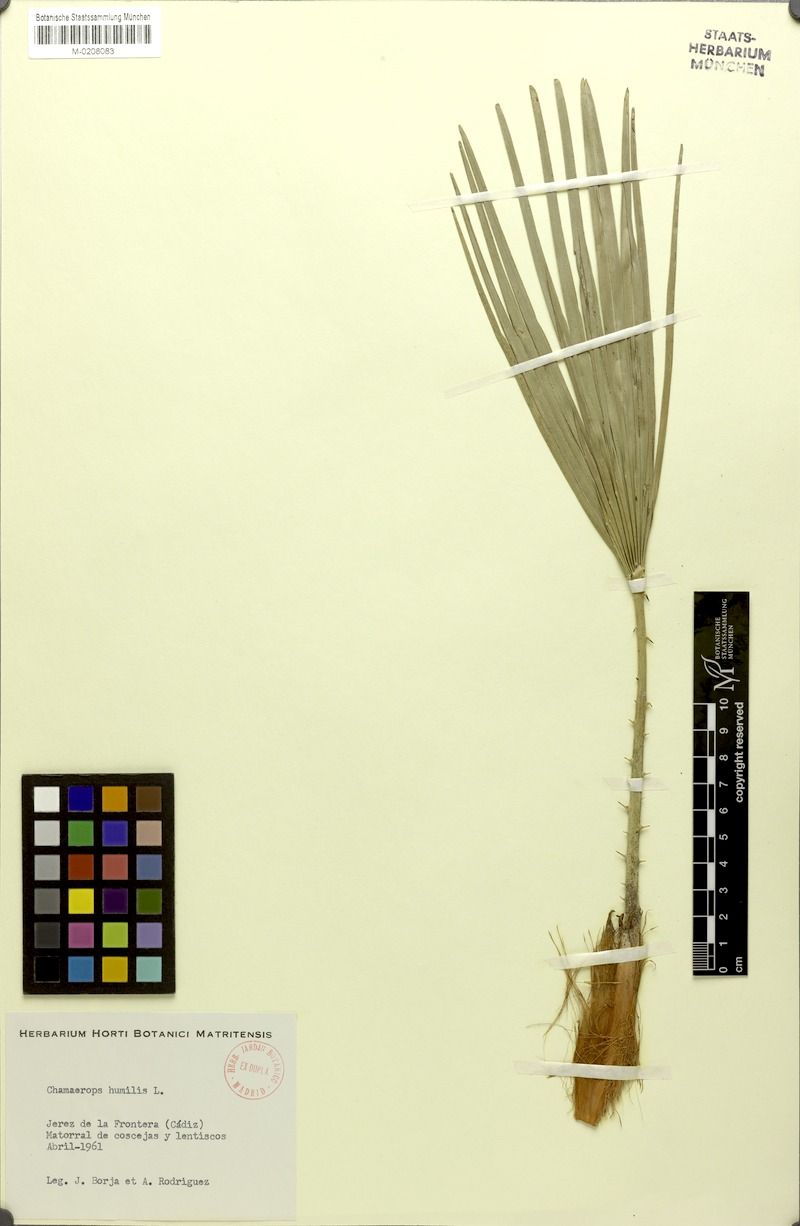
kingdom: Plantae
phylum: Tracheophyta
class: Liliopsida
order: Arecales
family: Arecaceae
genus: Chamaerops
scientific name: Chamaerops humilis
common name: Dwarf fan palm
